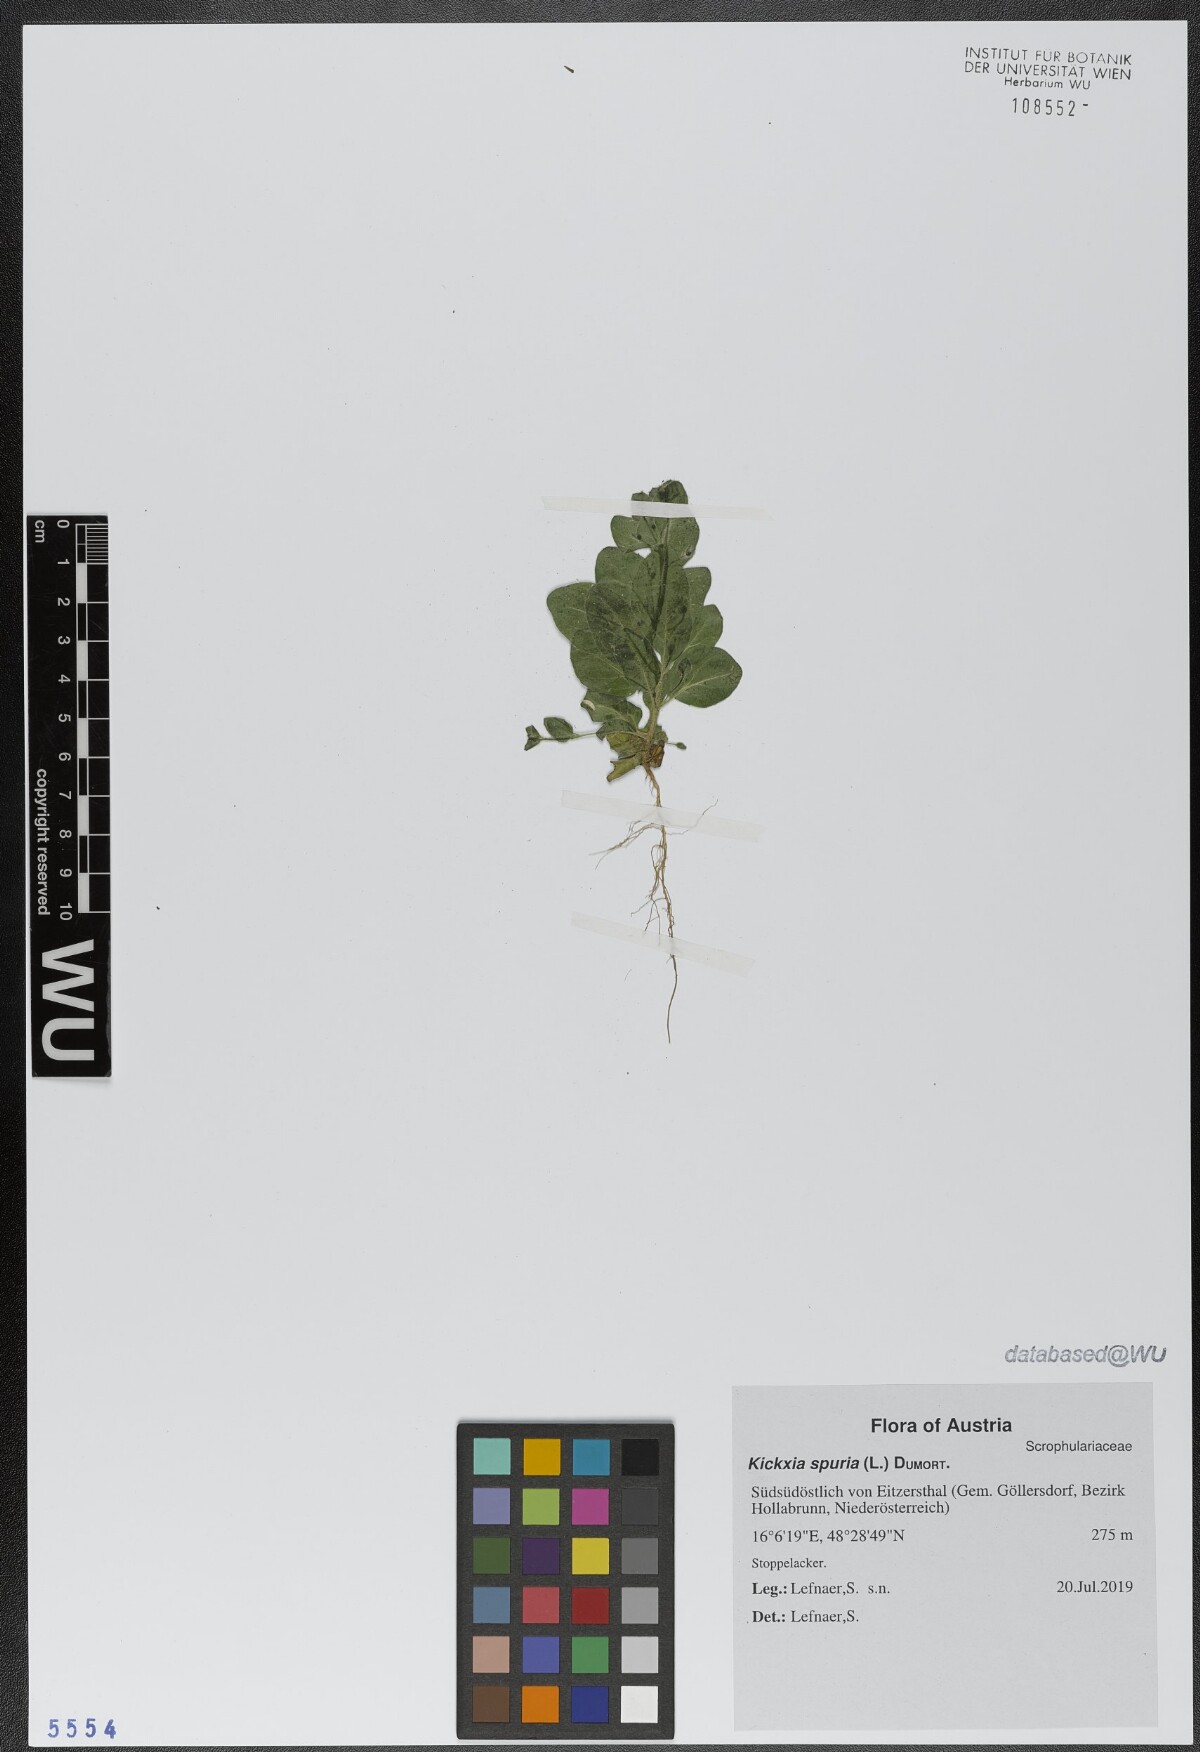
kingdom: Plantae
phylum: Tracheophyta
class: Magnoliopsida
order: Lamiales
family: Plantaginaceae
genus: Kickxia
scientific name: Kickxia spuria
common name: Round-leaved fluellen
